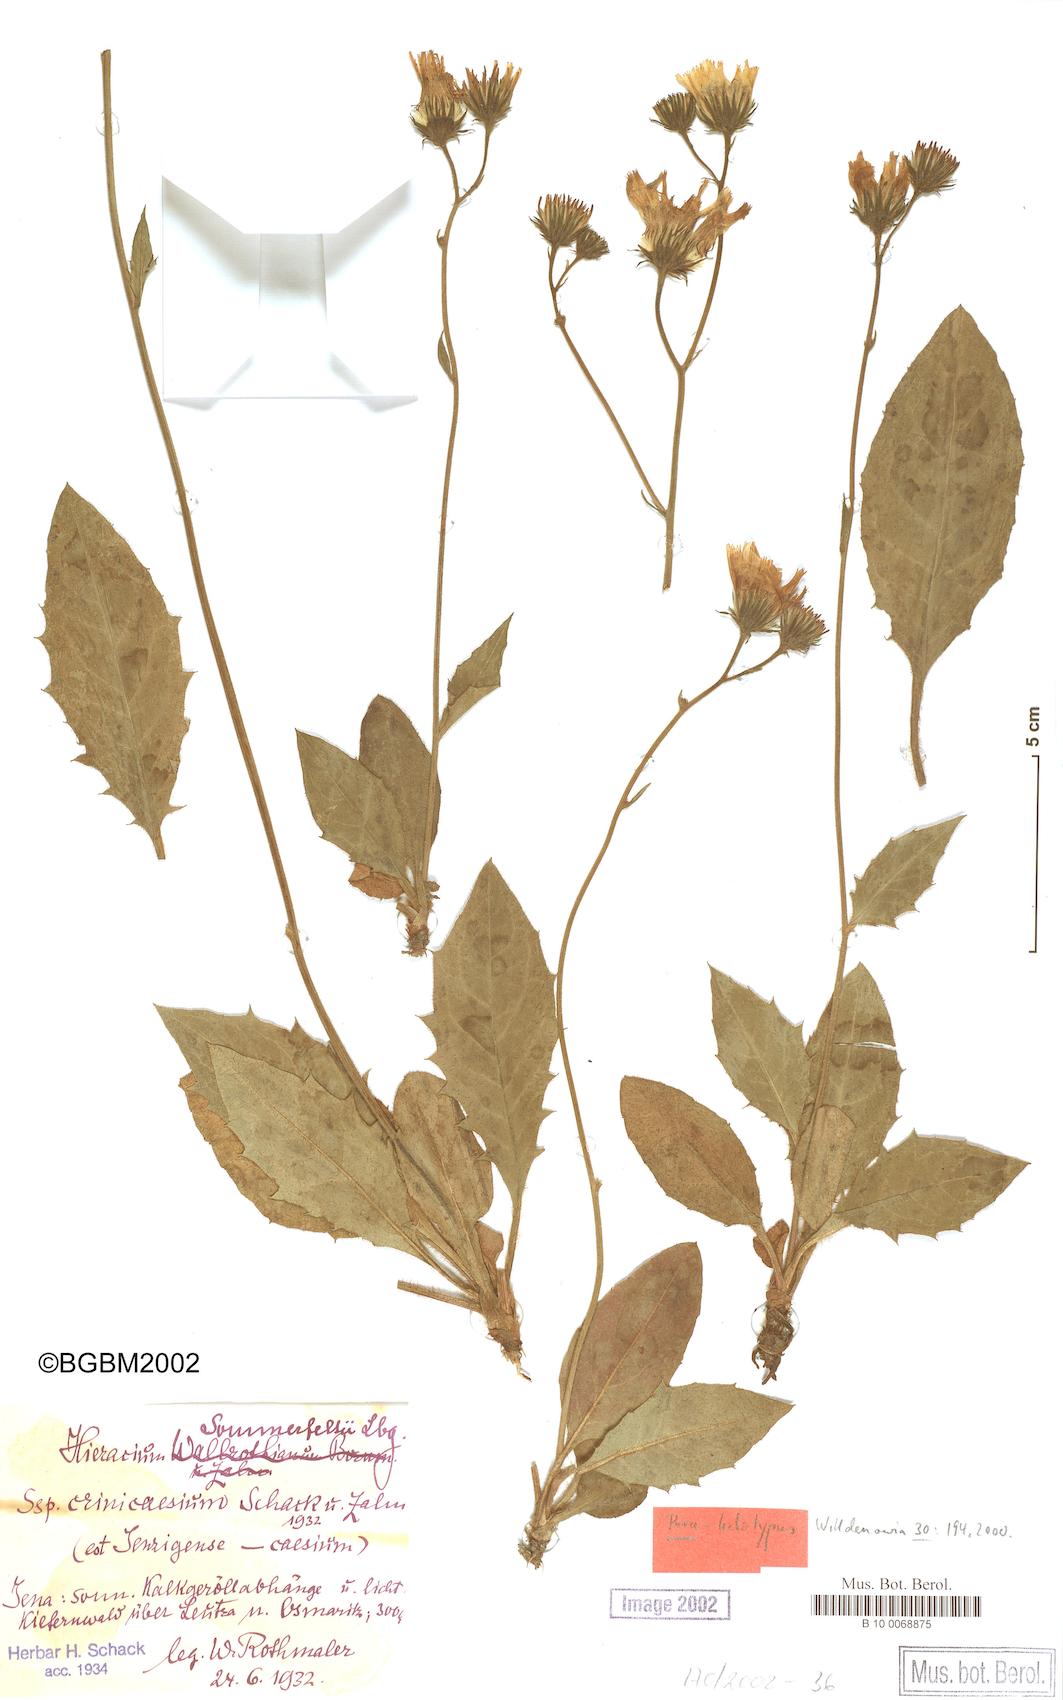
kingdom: Plantae
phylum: Tracheophyta
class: Magnoliopsida
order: Asterales
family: Asteraceae
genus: Hieracium
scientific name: Hieracium hypochoeroides
